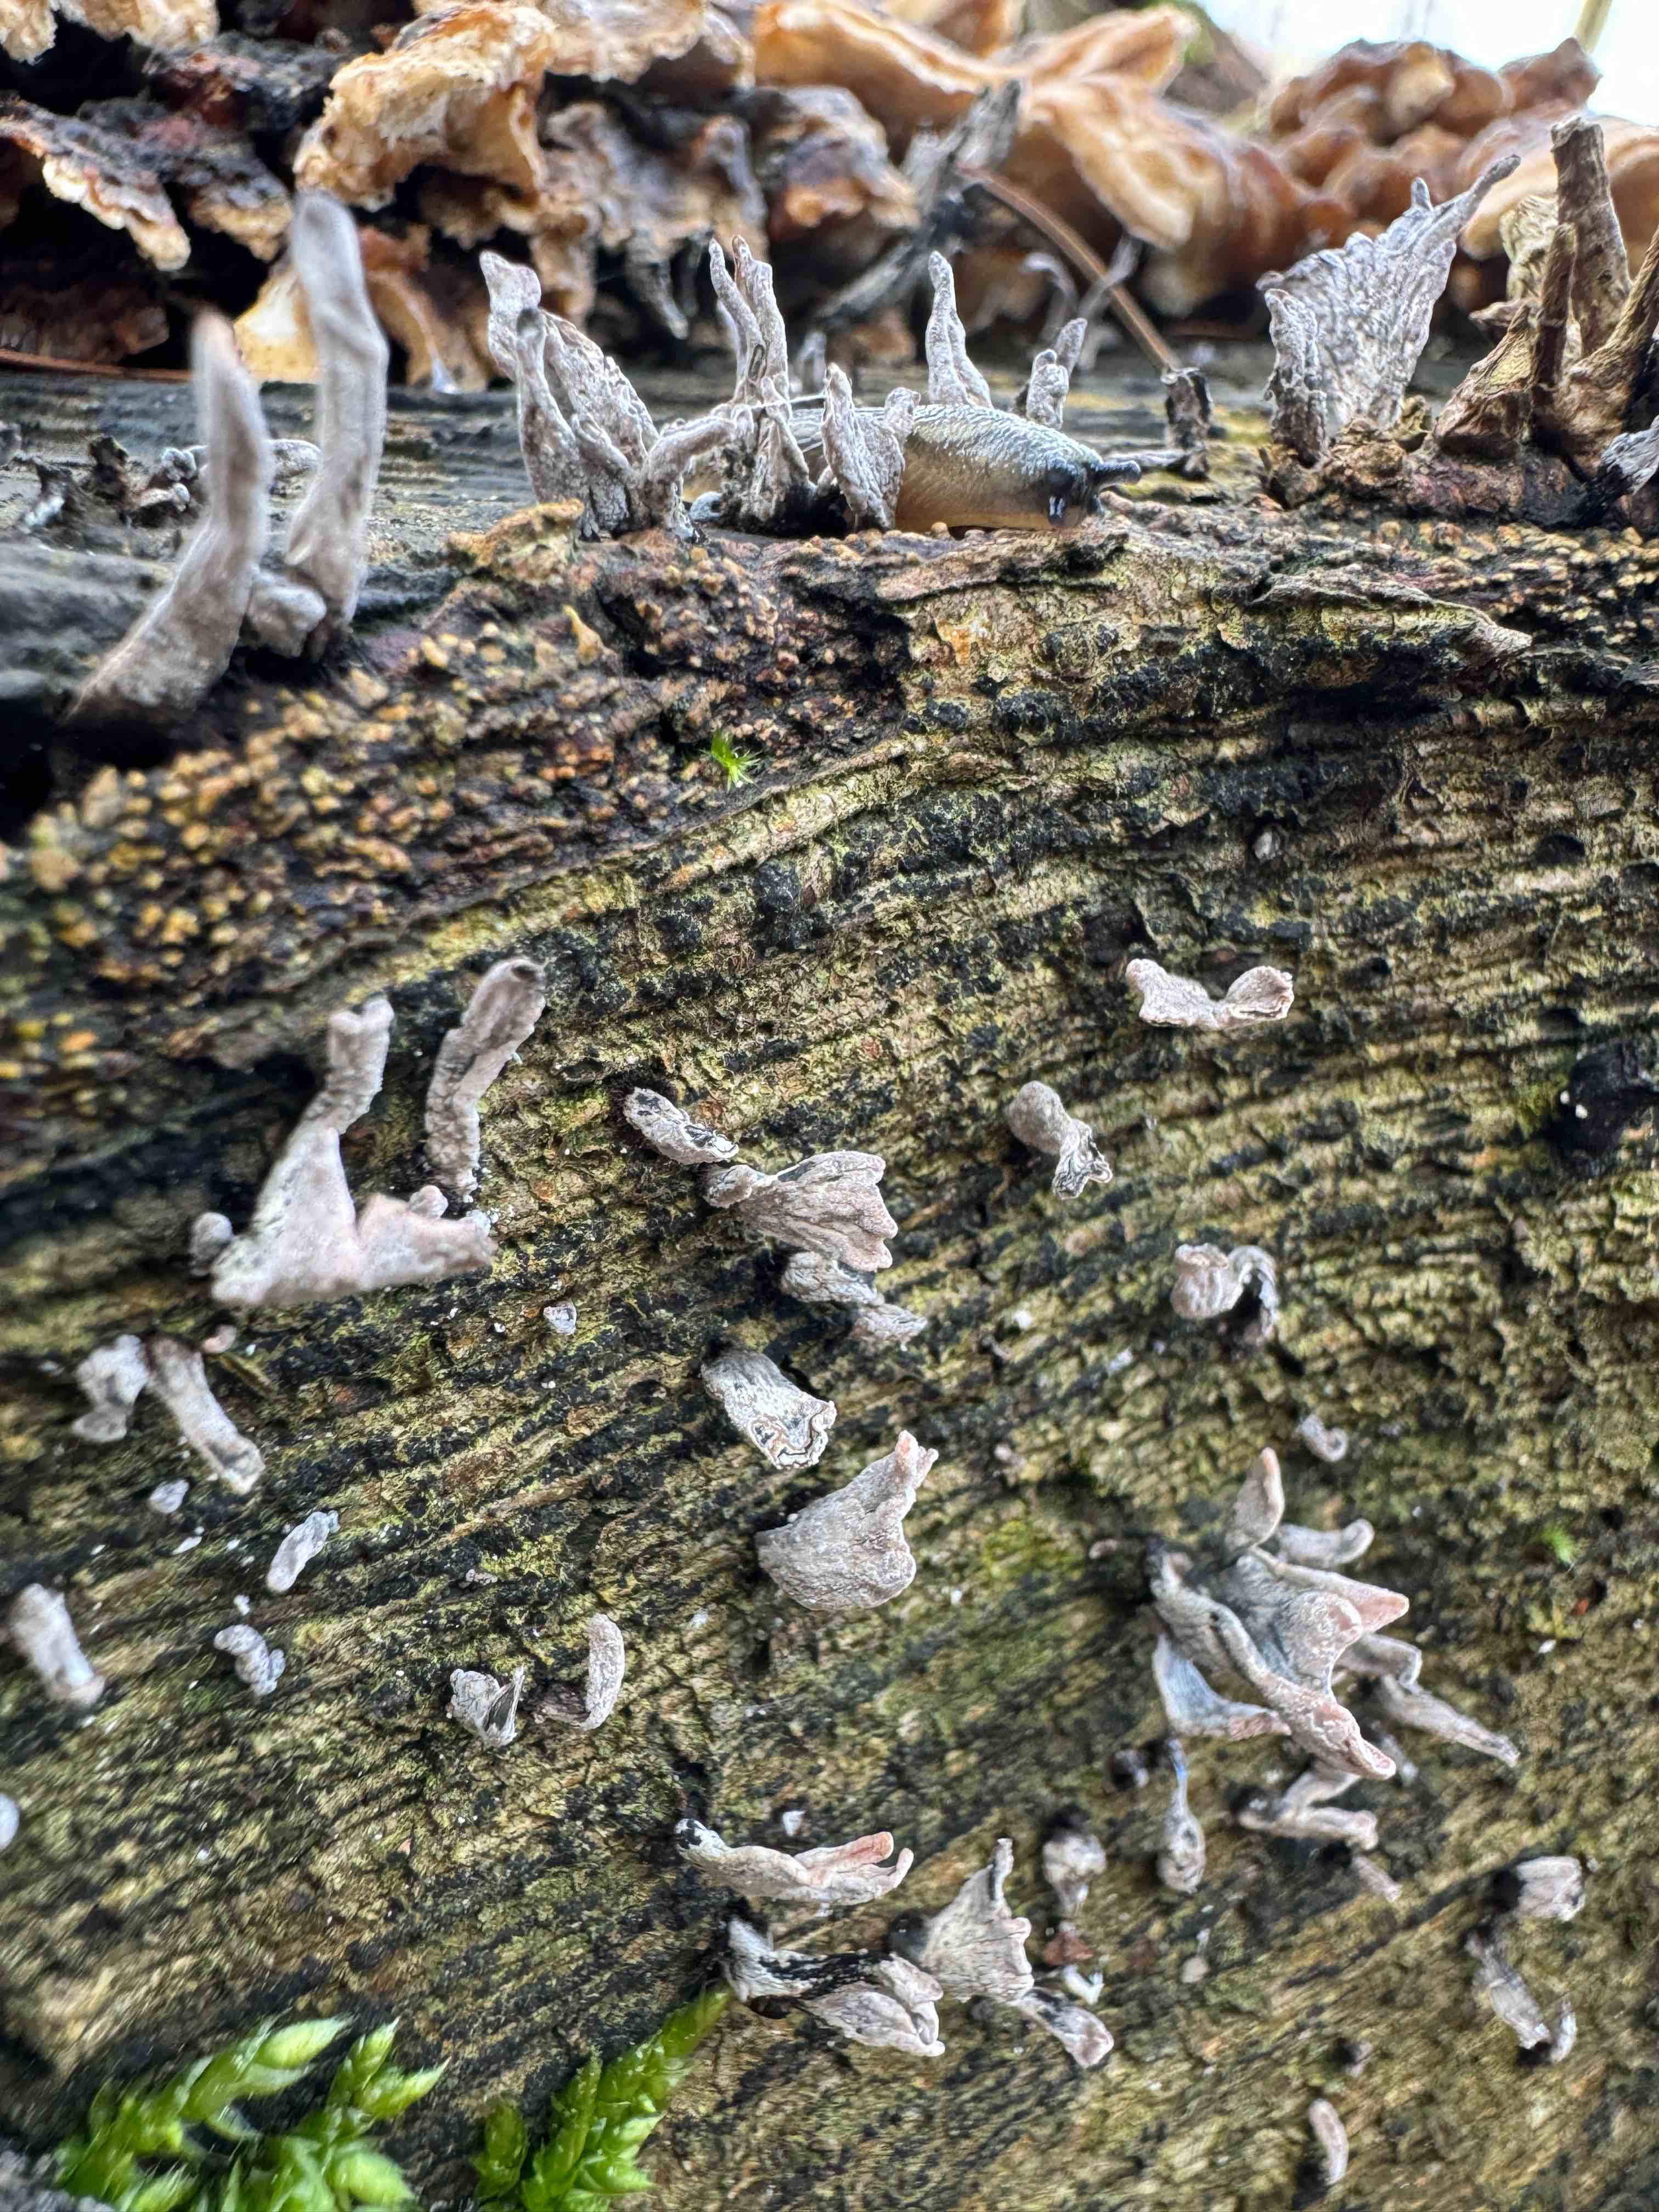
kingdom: Fungi
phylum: Ascomycota
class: Sordariomycetes
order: Xylariales
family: Xylariaceae
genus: Xylaria
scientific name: Xylaria hypoxylon
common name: grenet stødsvamp
